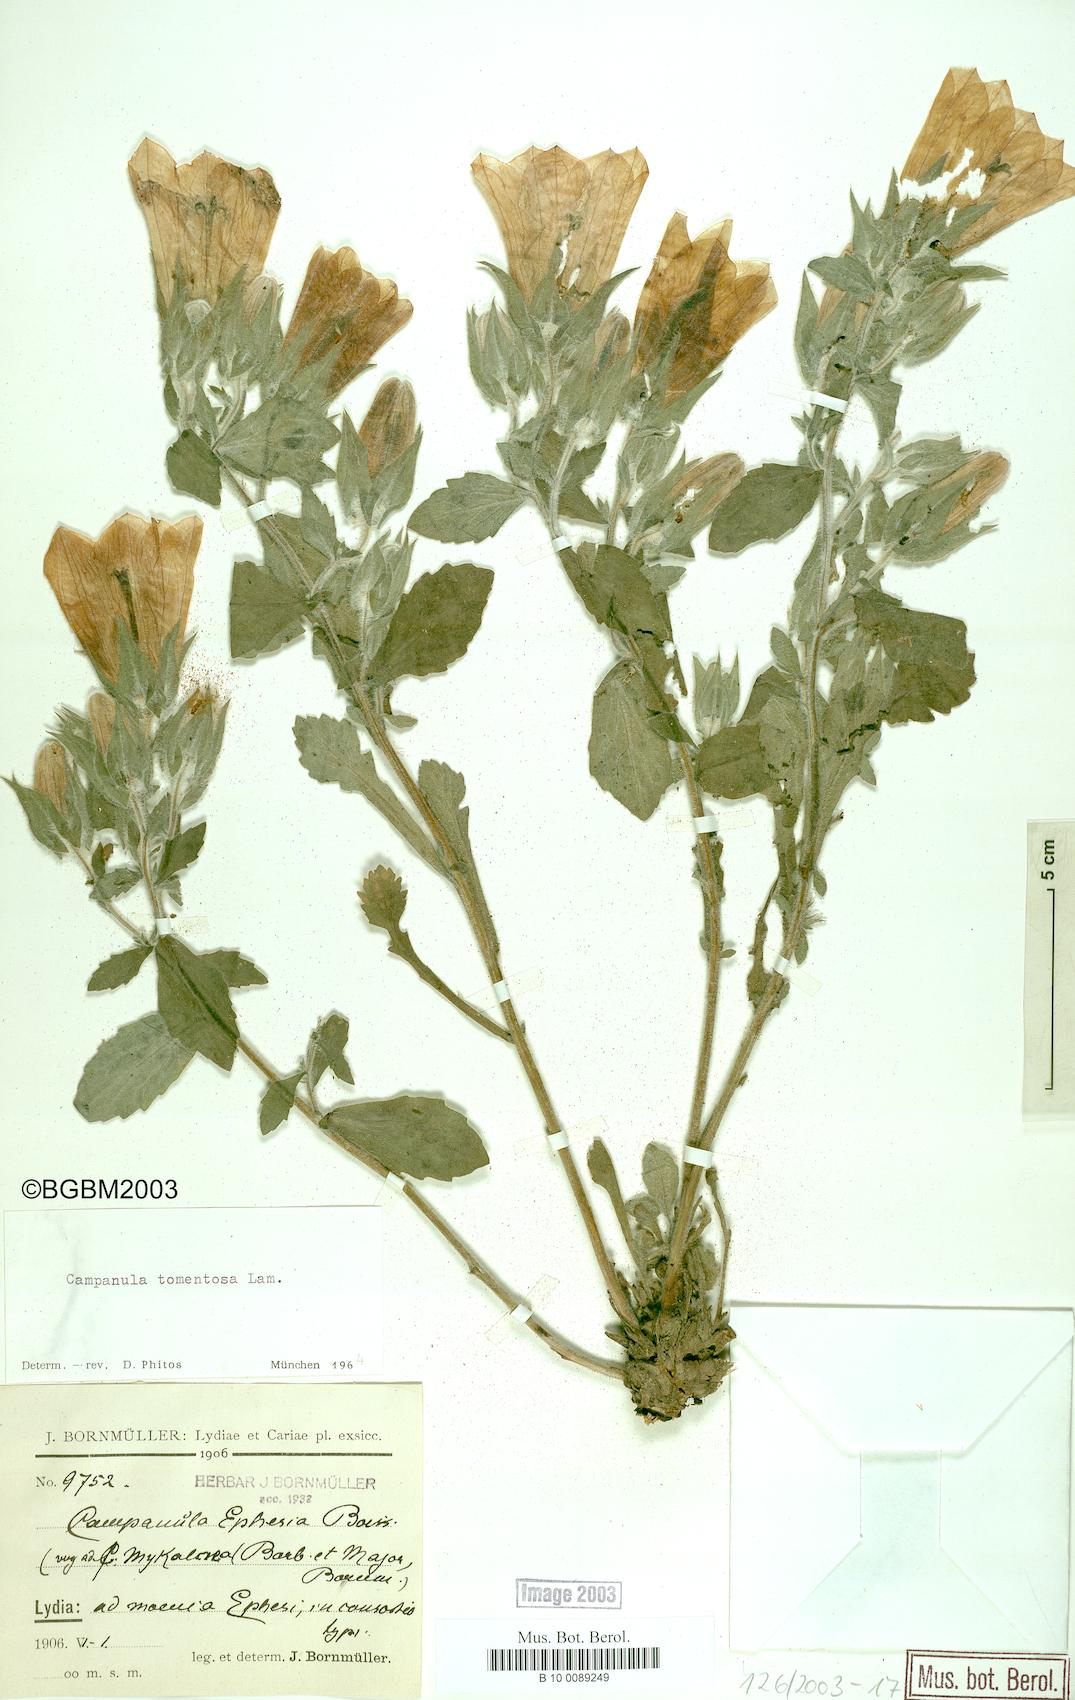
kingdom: Plantae
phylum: Tracheophyta
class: Magnoliopsida
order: Asterales
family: Campanulaceae
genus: Campanula
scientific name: Campanula tomentosa
